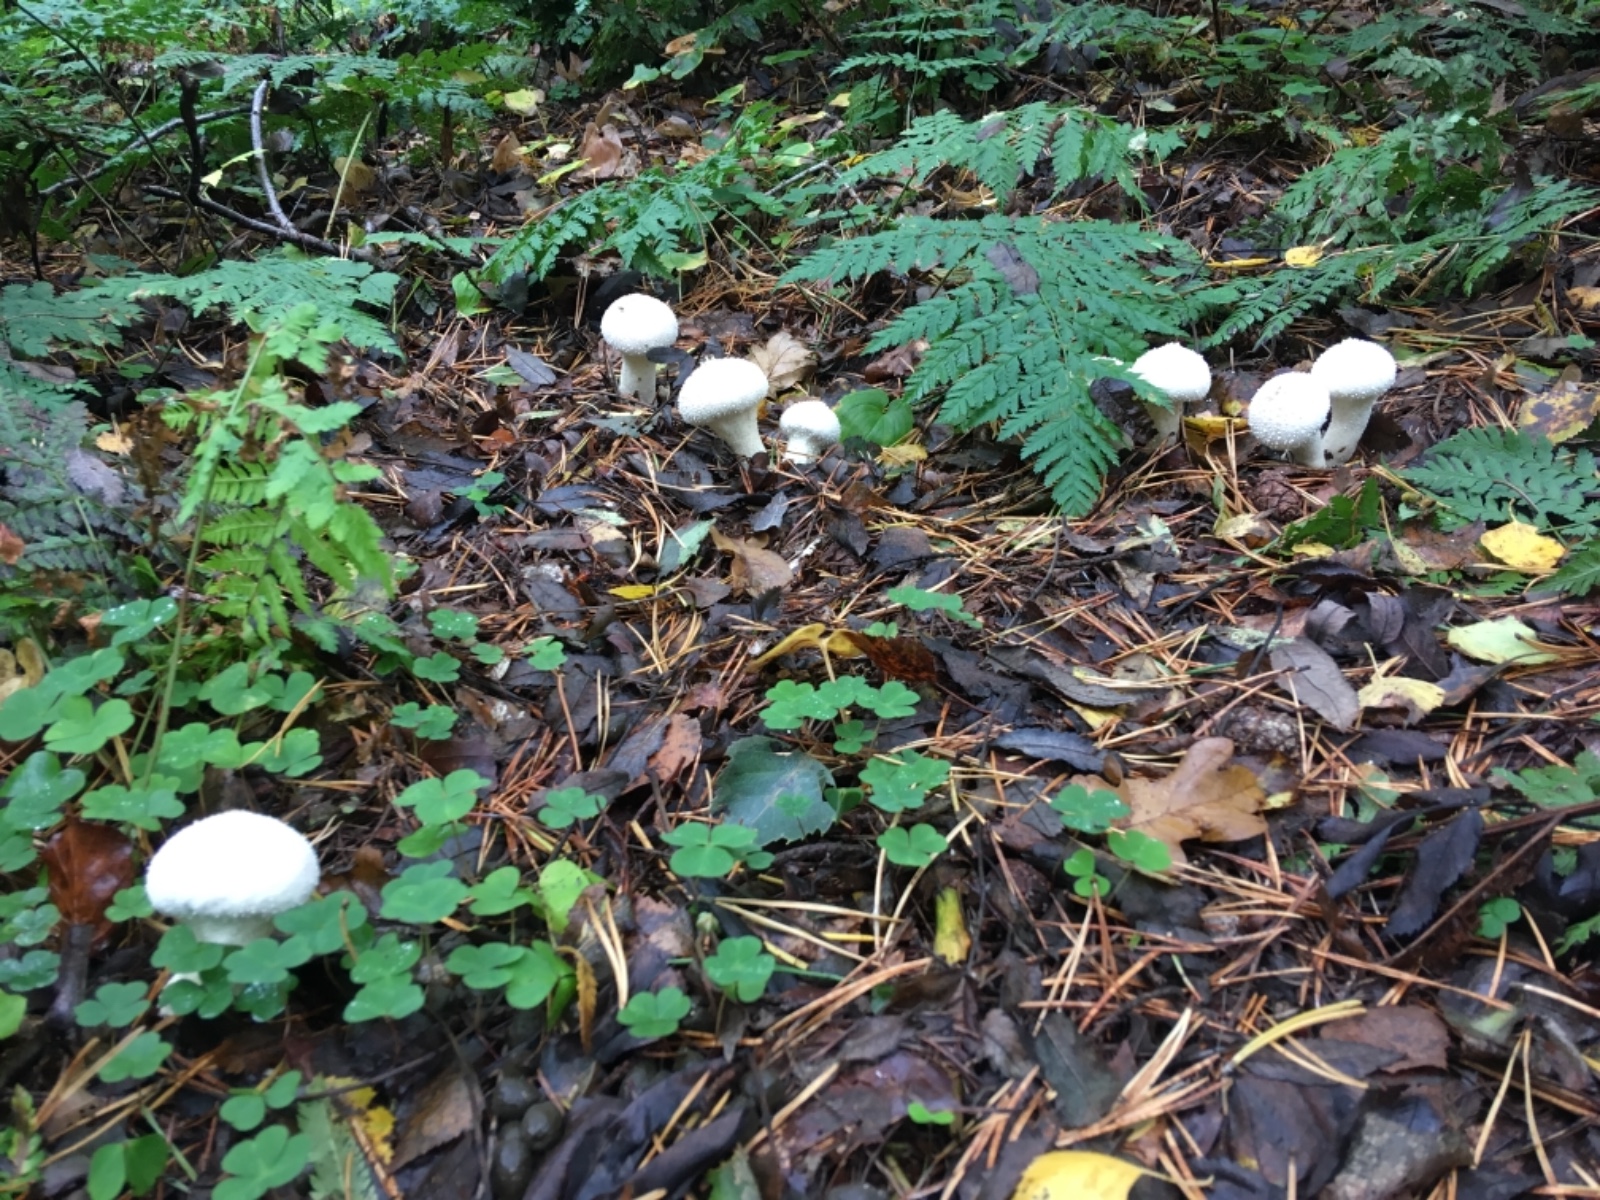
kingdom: Fungi
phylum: Basidiomycota
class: Agaricomycetes
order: Agaricales
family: Lycoperdaceae
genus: Lycoperdon
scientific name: Lycoperdon excipuliforme
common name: højstokket støvbold
